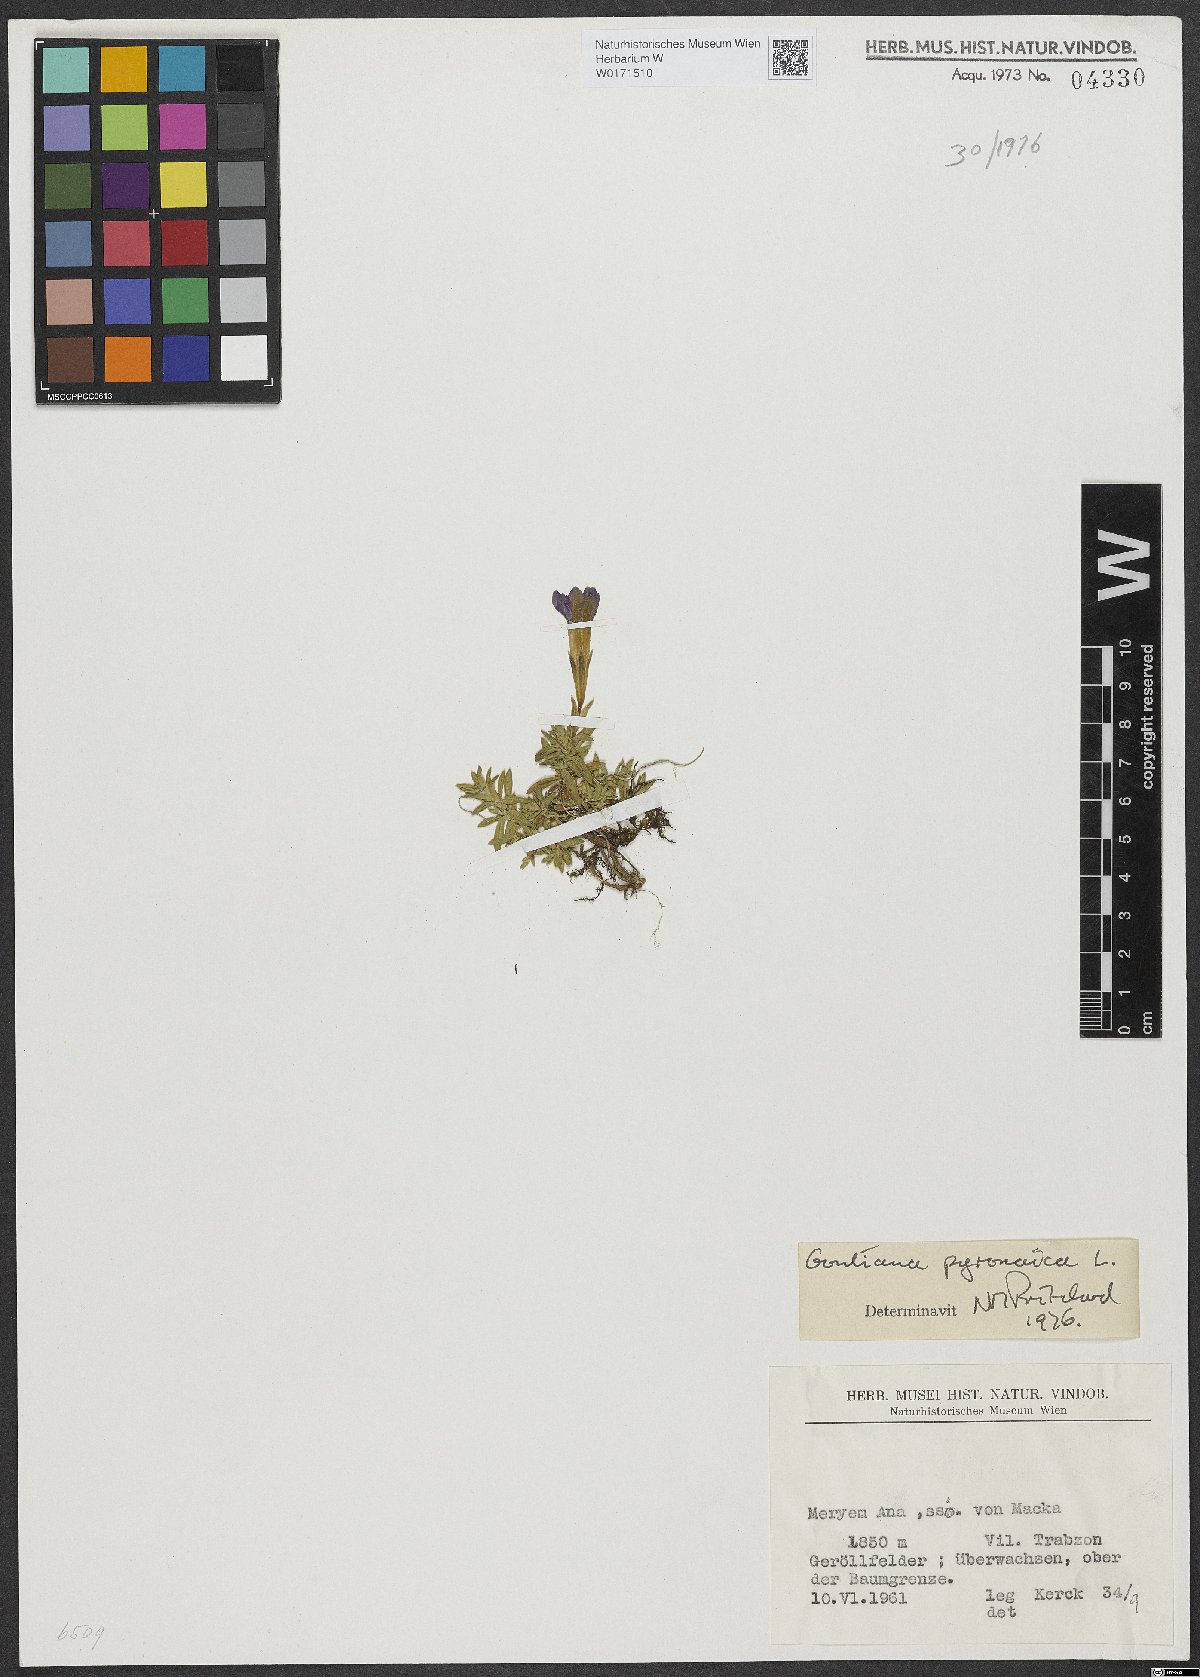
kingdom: Plantae
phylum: Tracheophyta
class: Magnoliopsida
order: Gentianales
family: Gentianaceae
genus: Gentiana
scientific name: Gentiana pyrenaica
